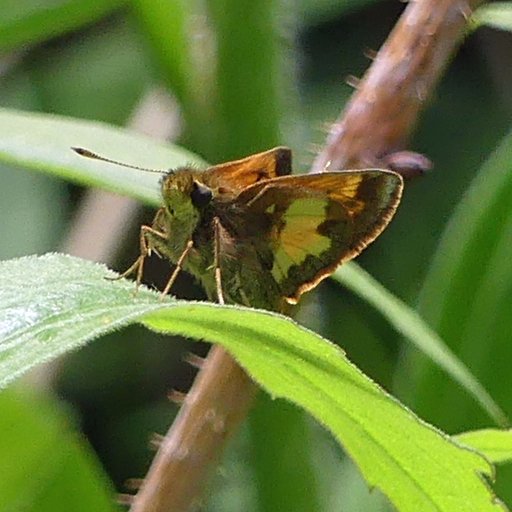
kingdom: Animalia
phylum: Arthropoda
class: Insecta
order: Lepidoptera
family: Hesperiidae
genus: Lon
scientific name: Lon hobomok
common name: Hobomok Skipper
